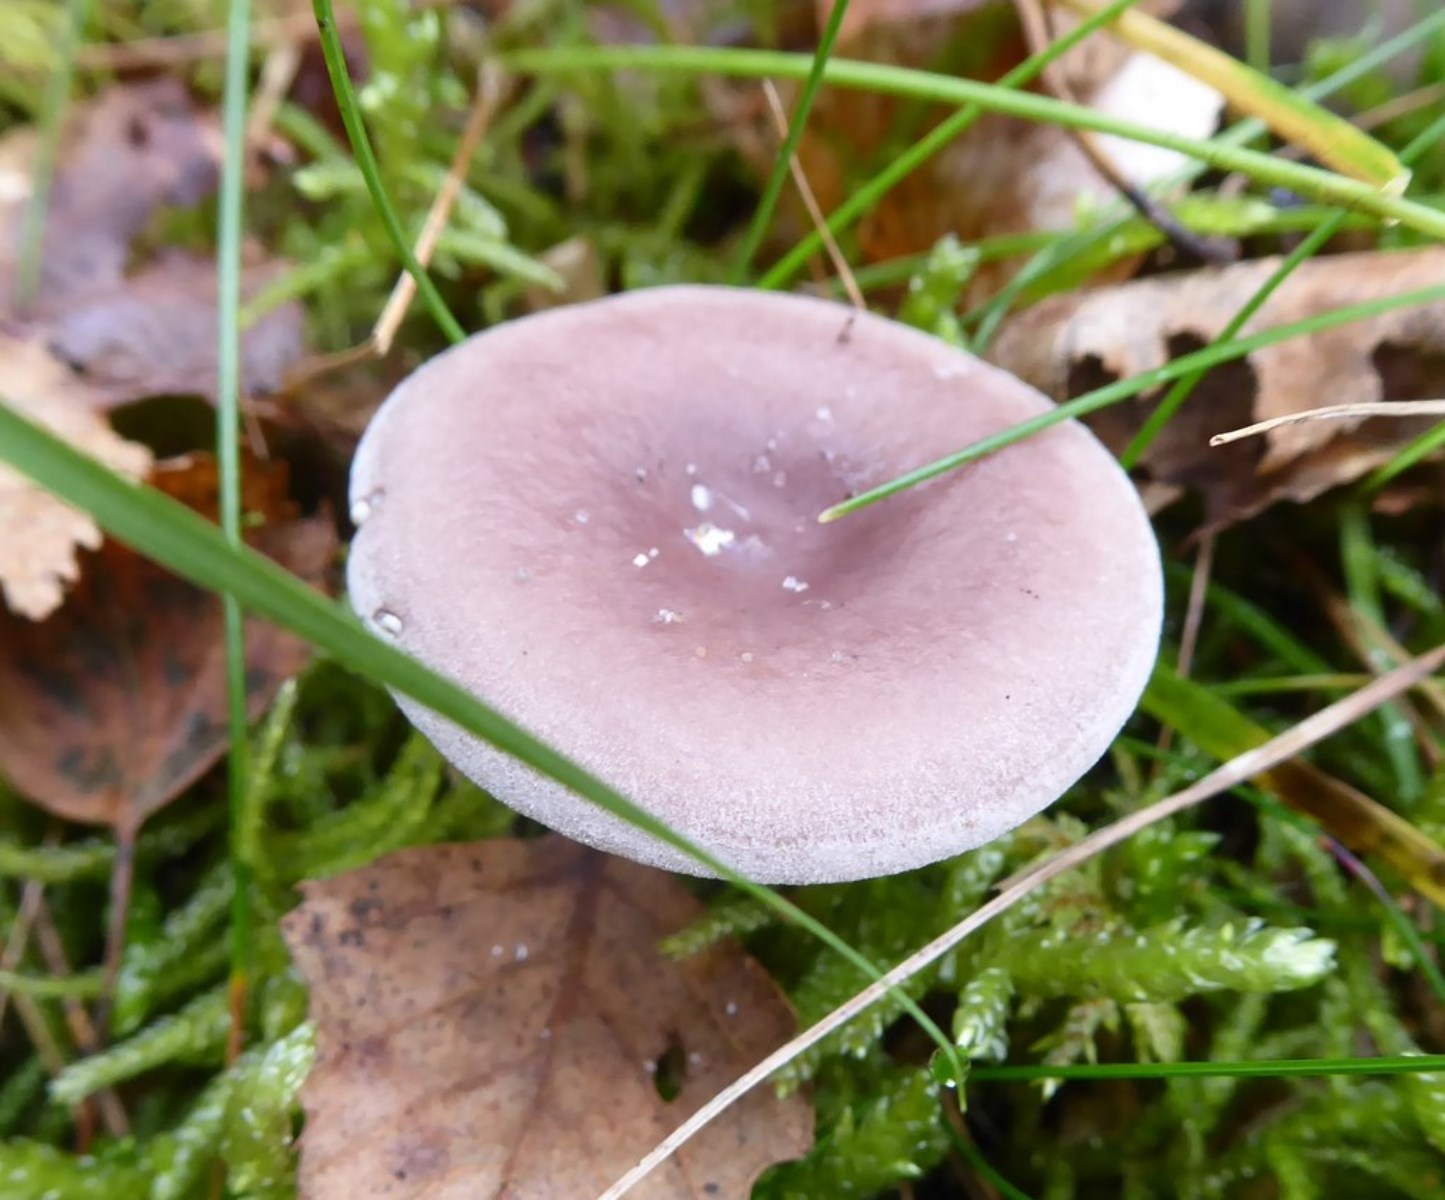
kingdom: Fungi
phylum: Basidiomycota
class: Agaricomycetes
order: Agaricales
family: Tricholomataceae
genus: Clitocybe
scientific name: Clitocybe
